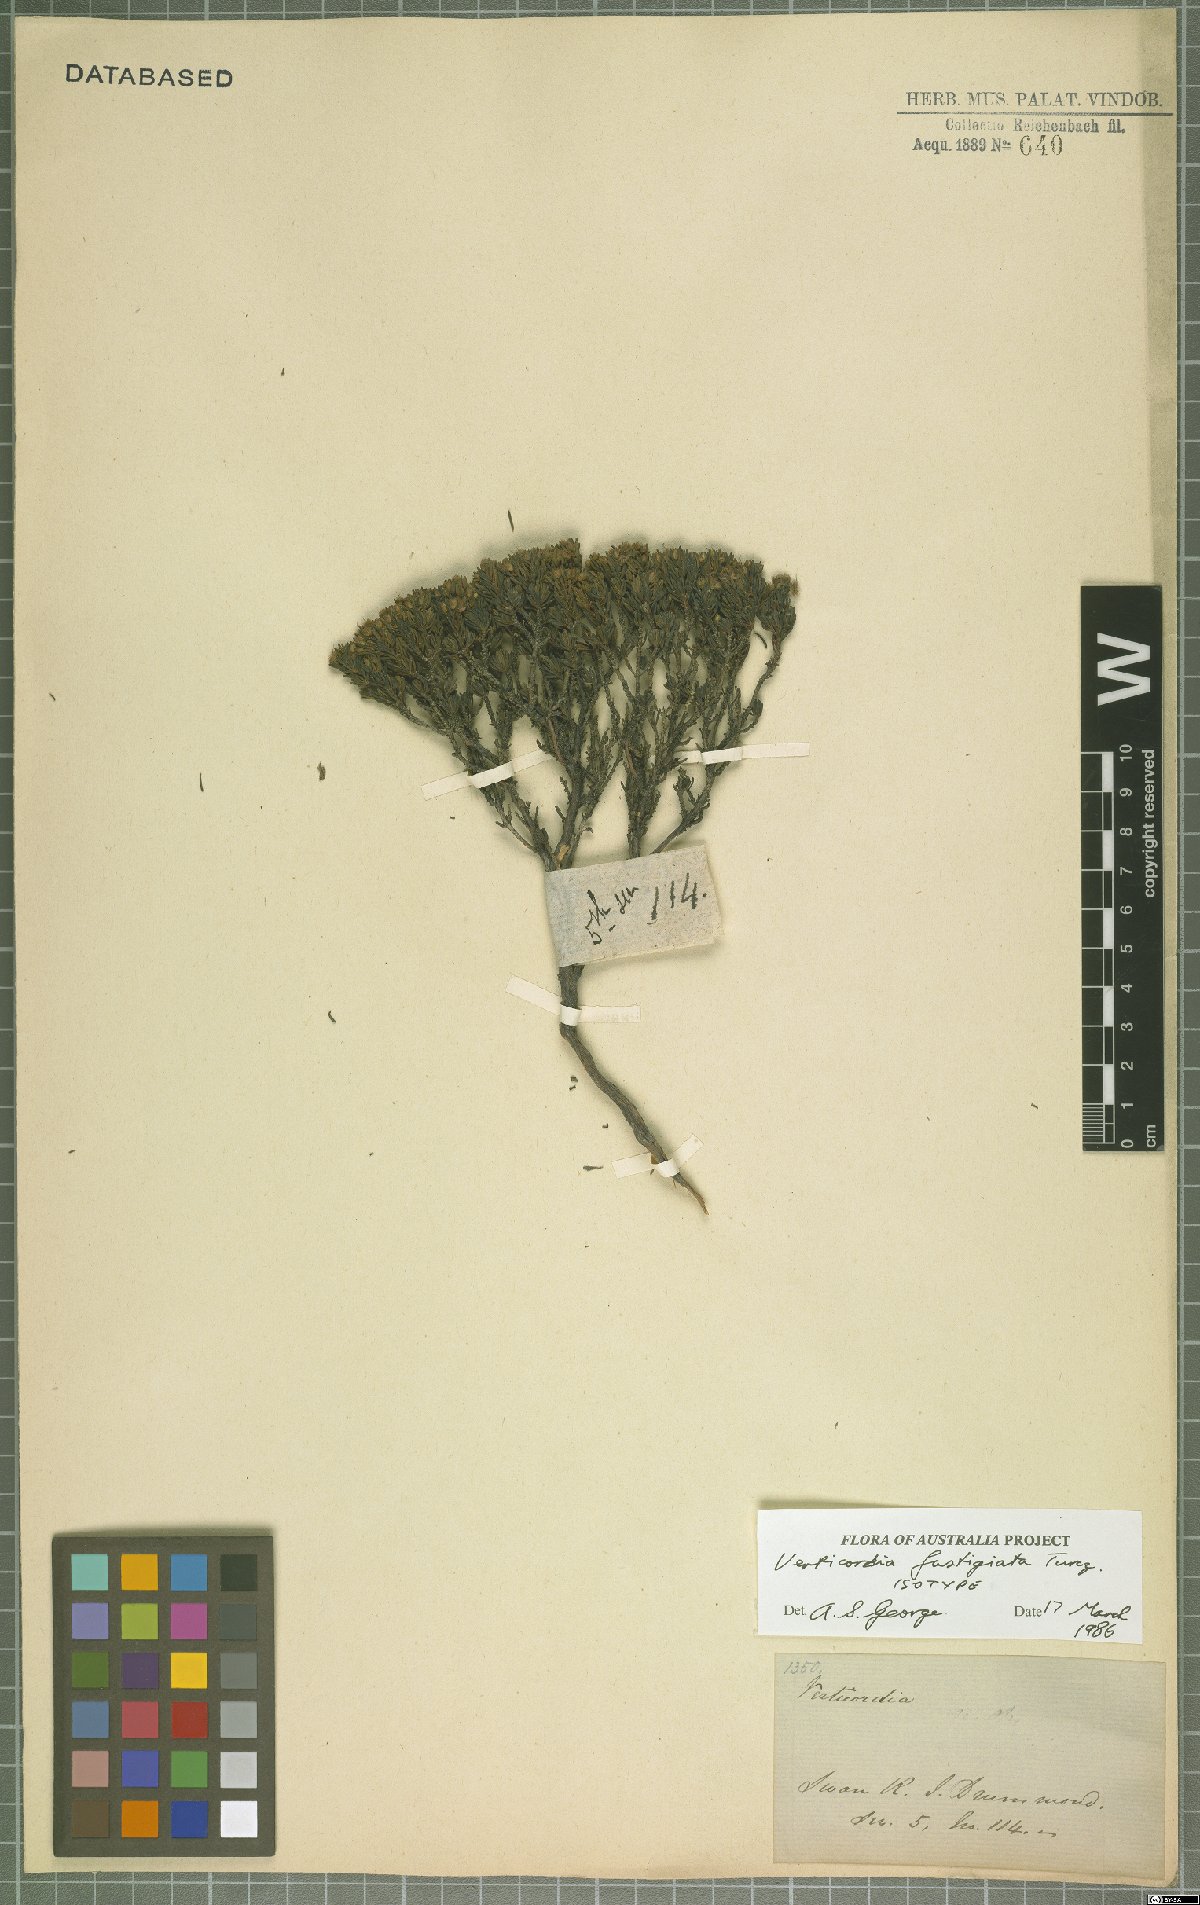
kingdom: Plantae
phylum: Tracheophyta
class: Magnoliopsida
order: Myrtales
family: Myrtaceae
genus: Verticordia
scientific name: Verticordia fastigiata
